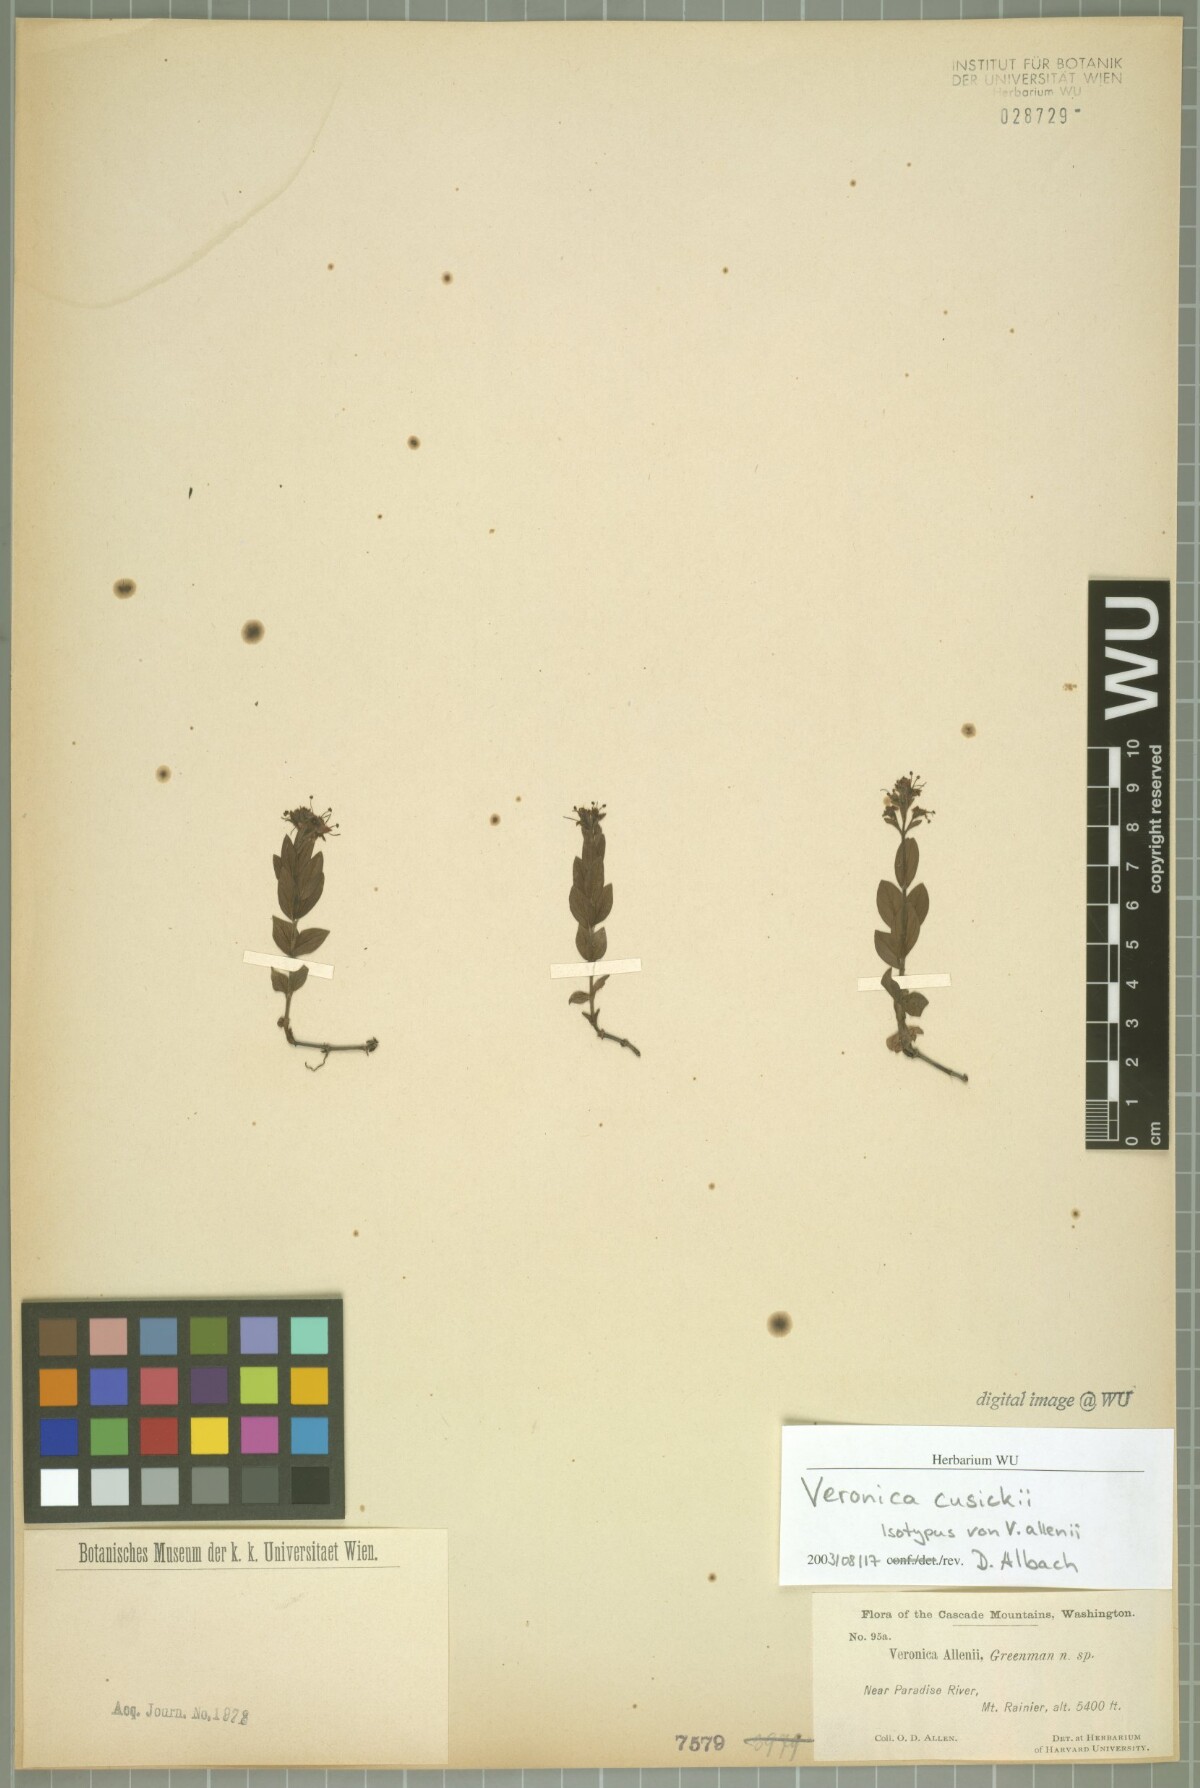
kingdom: Plantae
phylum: Tracheophyta
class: Magnoliopsida
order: Lamiales
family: Plantaginaceae
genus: Veronica
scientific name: Veronica cusickii
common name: Cusick's speedwell
